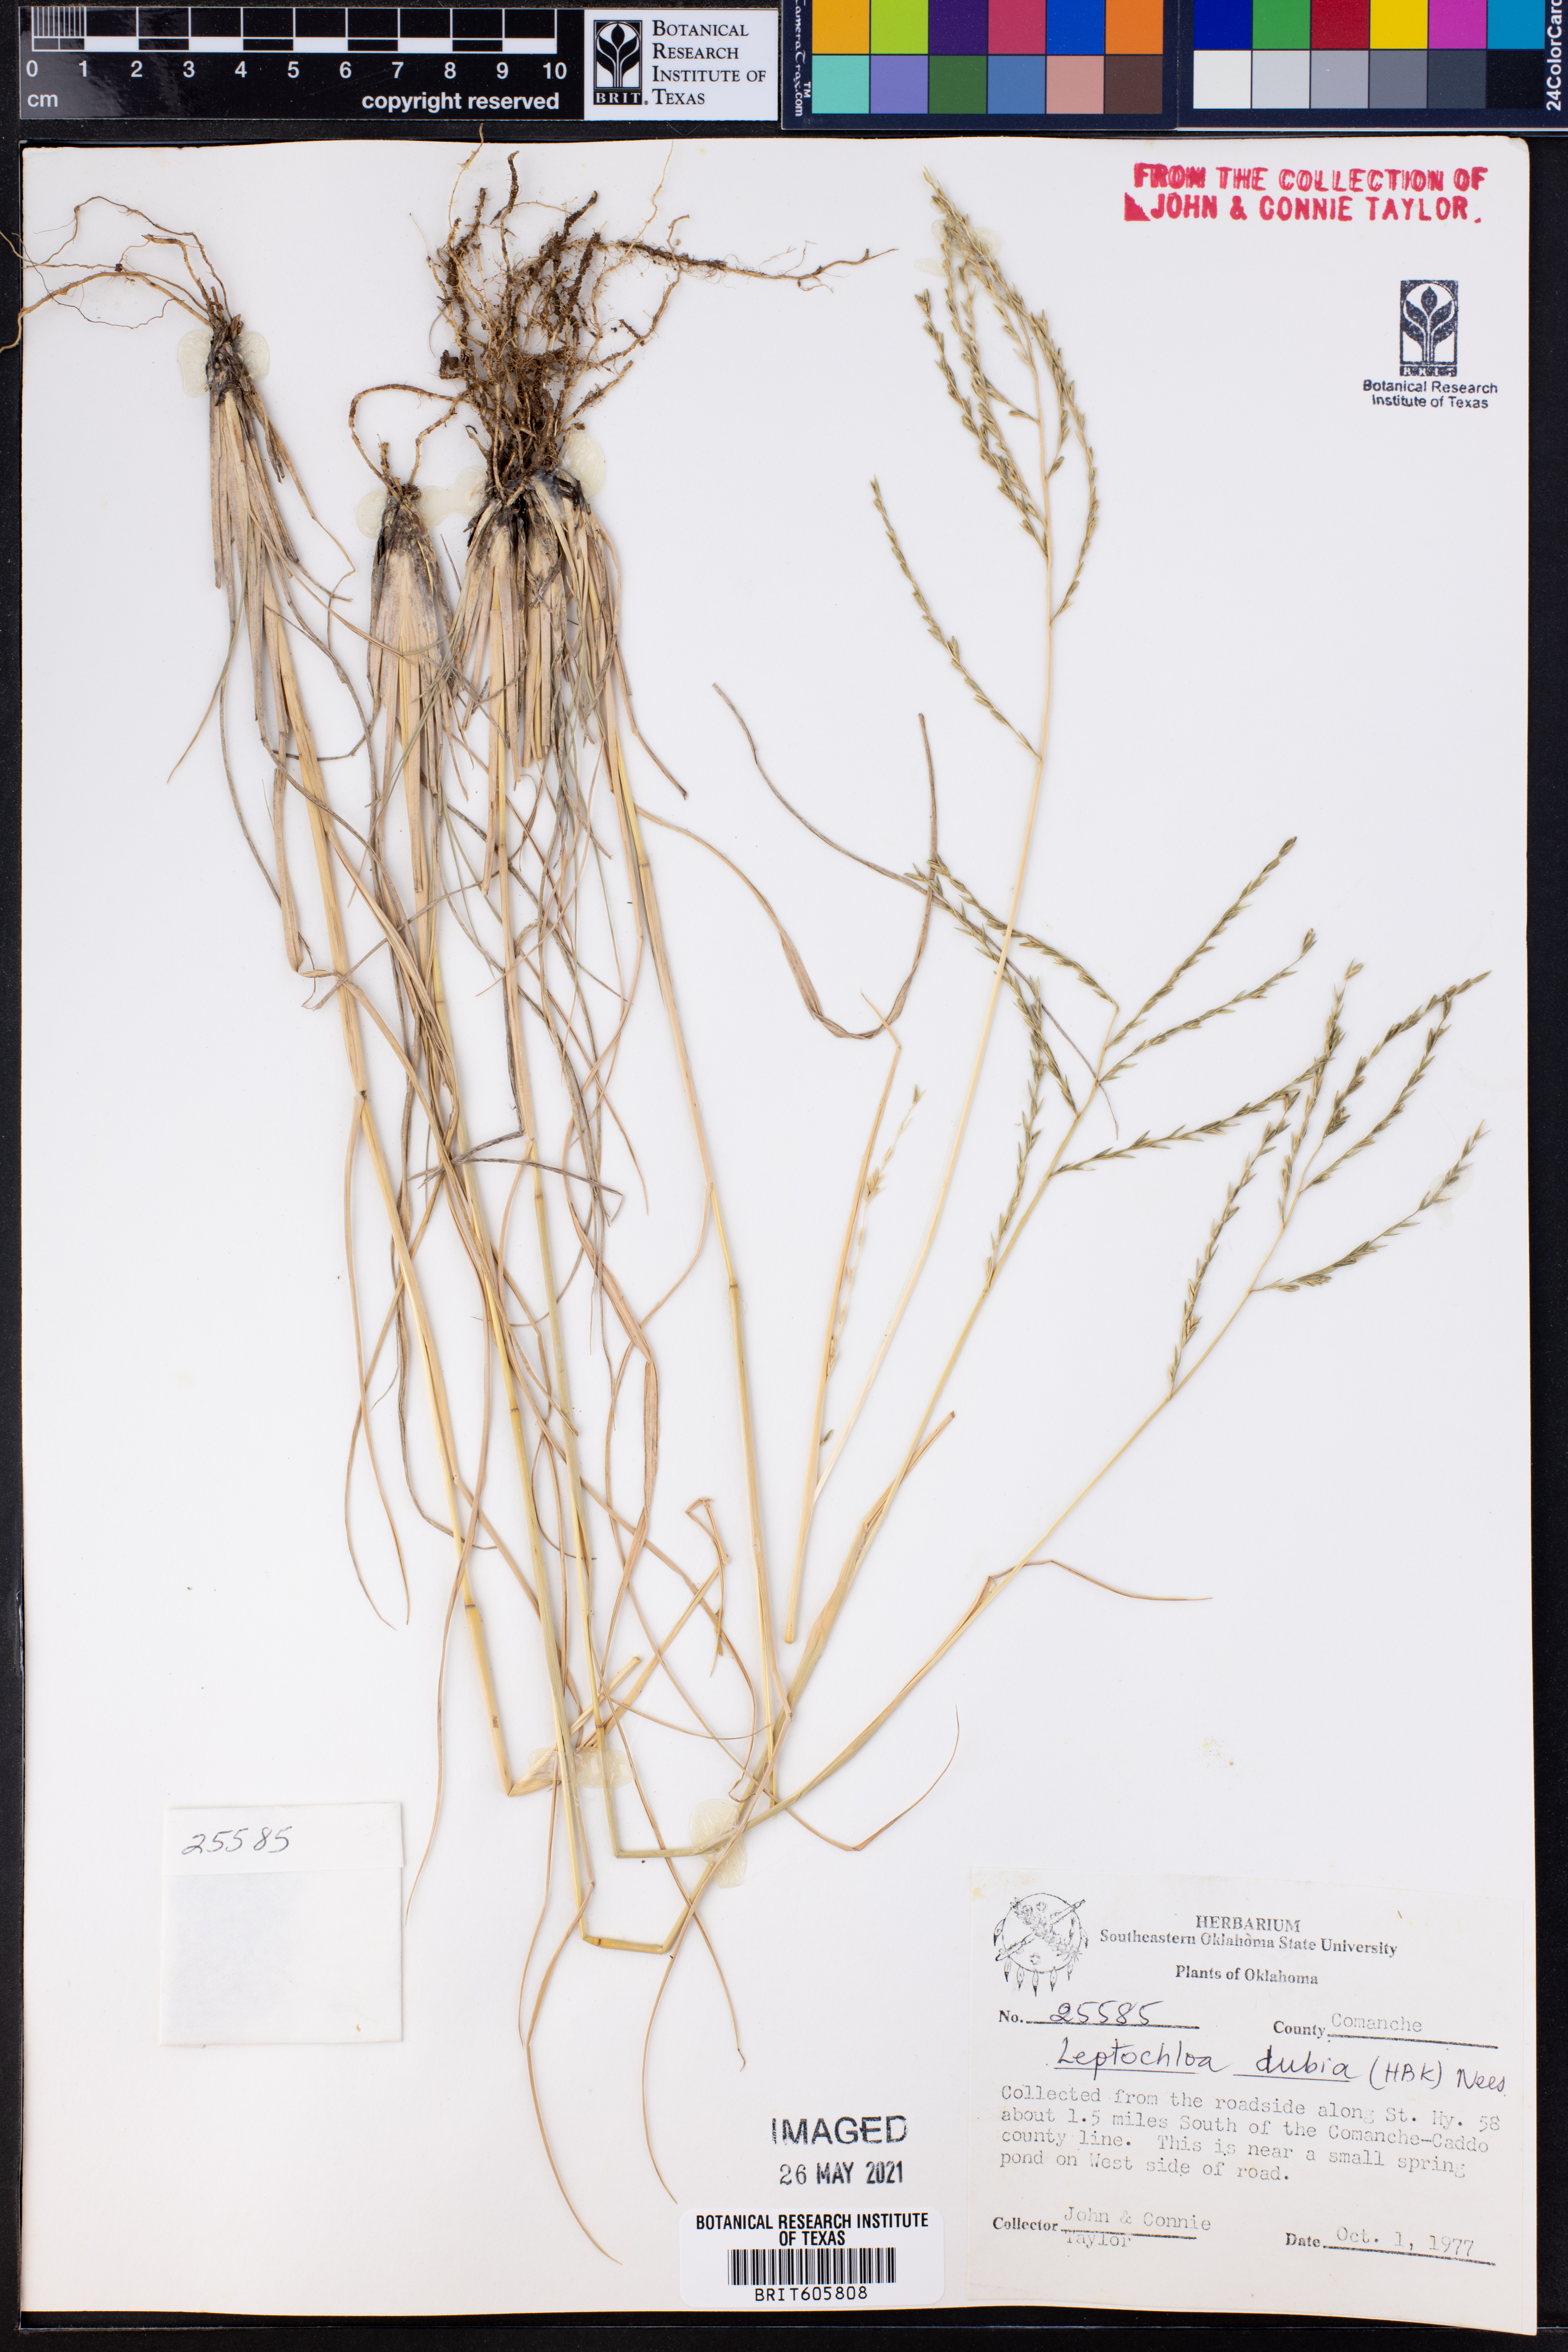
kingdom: Plantae
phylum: Tracheophyta
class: Liliopsida
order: Poales
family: Poaceae
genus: Disakisperma
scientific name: Disakisperma dubium
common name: Green sprangletop
